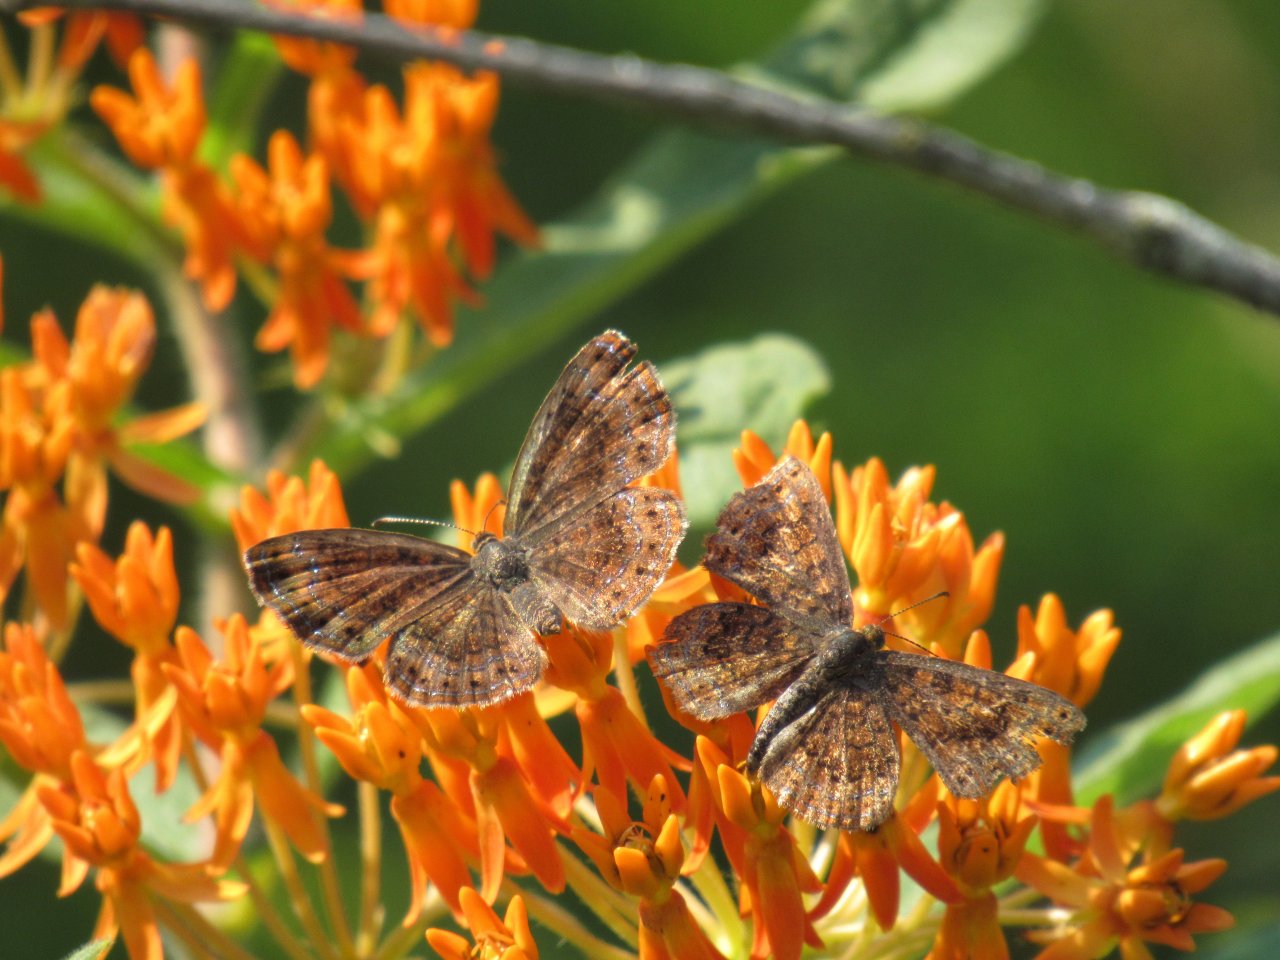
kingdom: Animalia
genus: Calephelis
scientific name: Calephelis borealis
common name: Northern Metalmark
